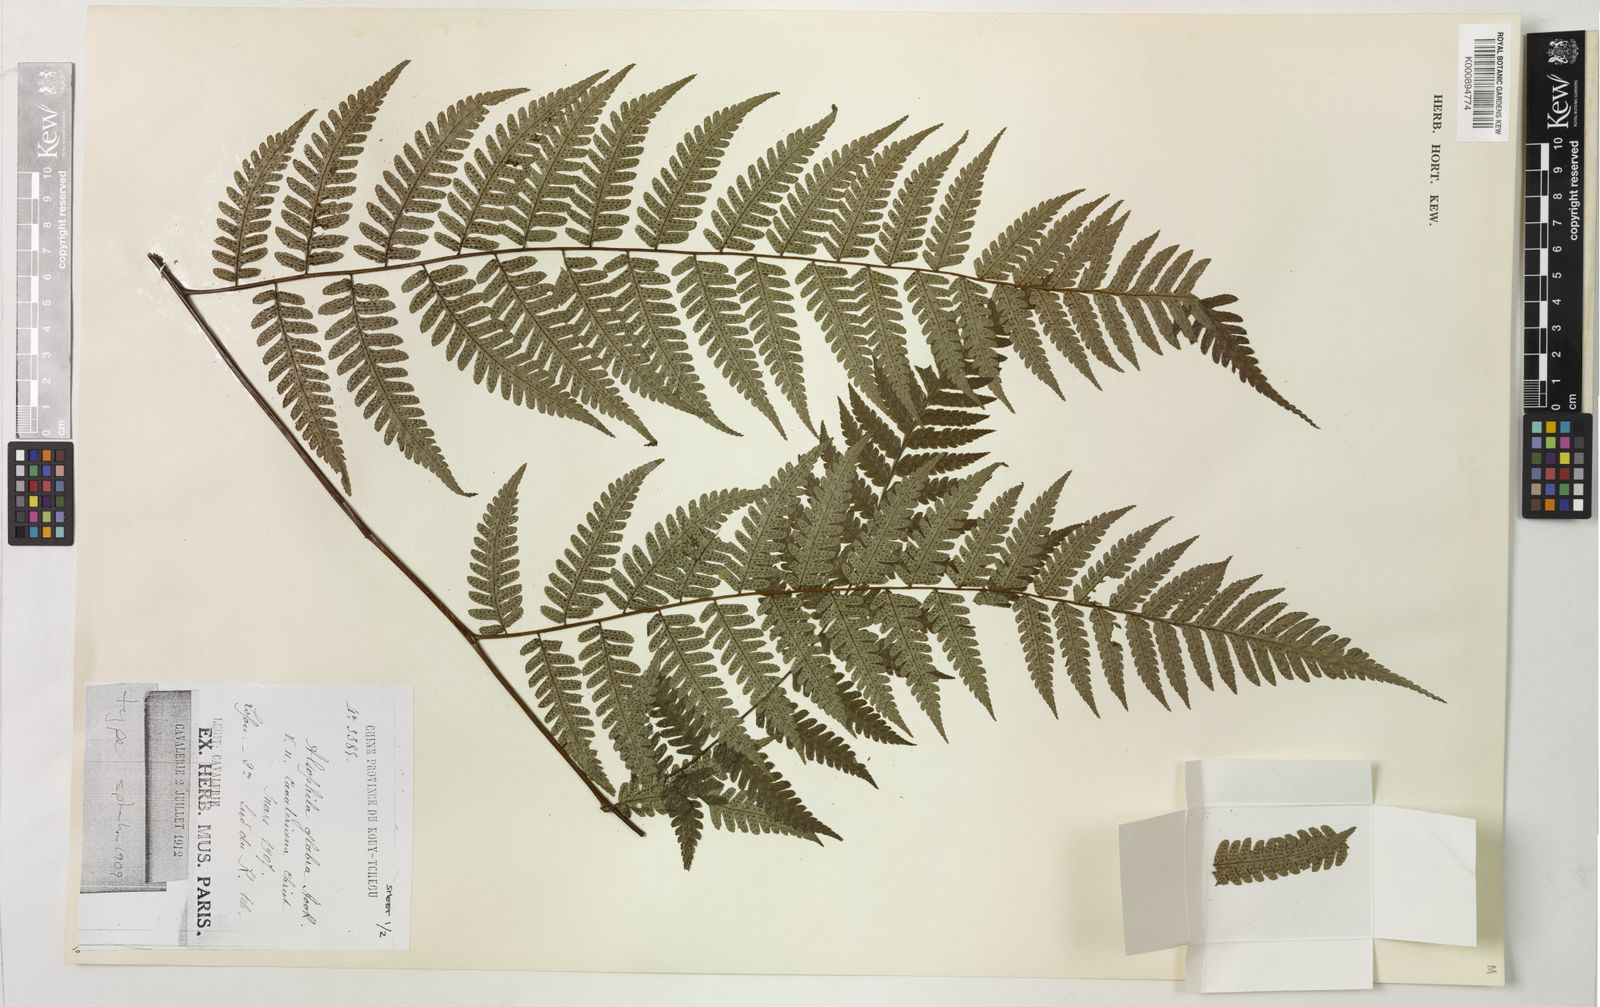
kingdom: Plantae
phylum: Tracheophyta
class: Polypodiopsida
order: Cyatheales
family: Cyatheaceae
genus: Gymnosphaera
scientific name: Gymnosphaera glabra
